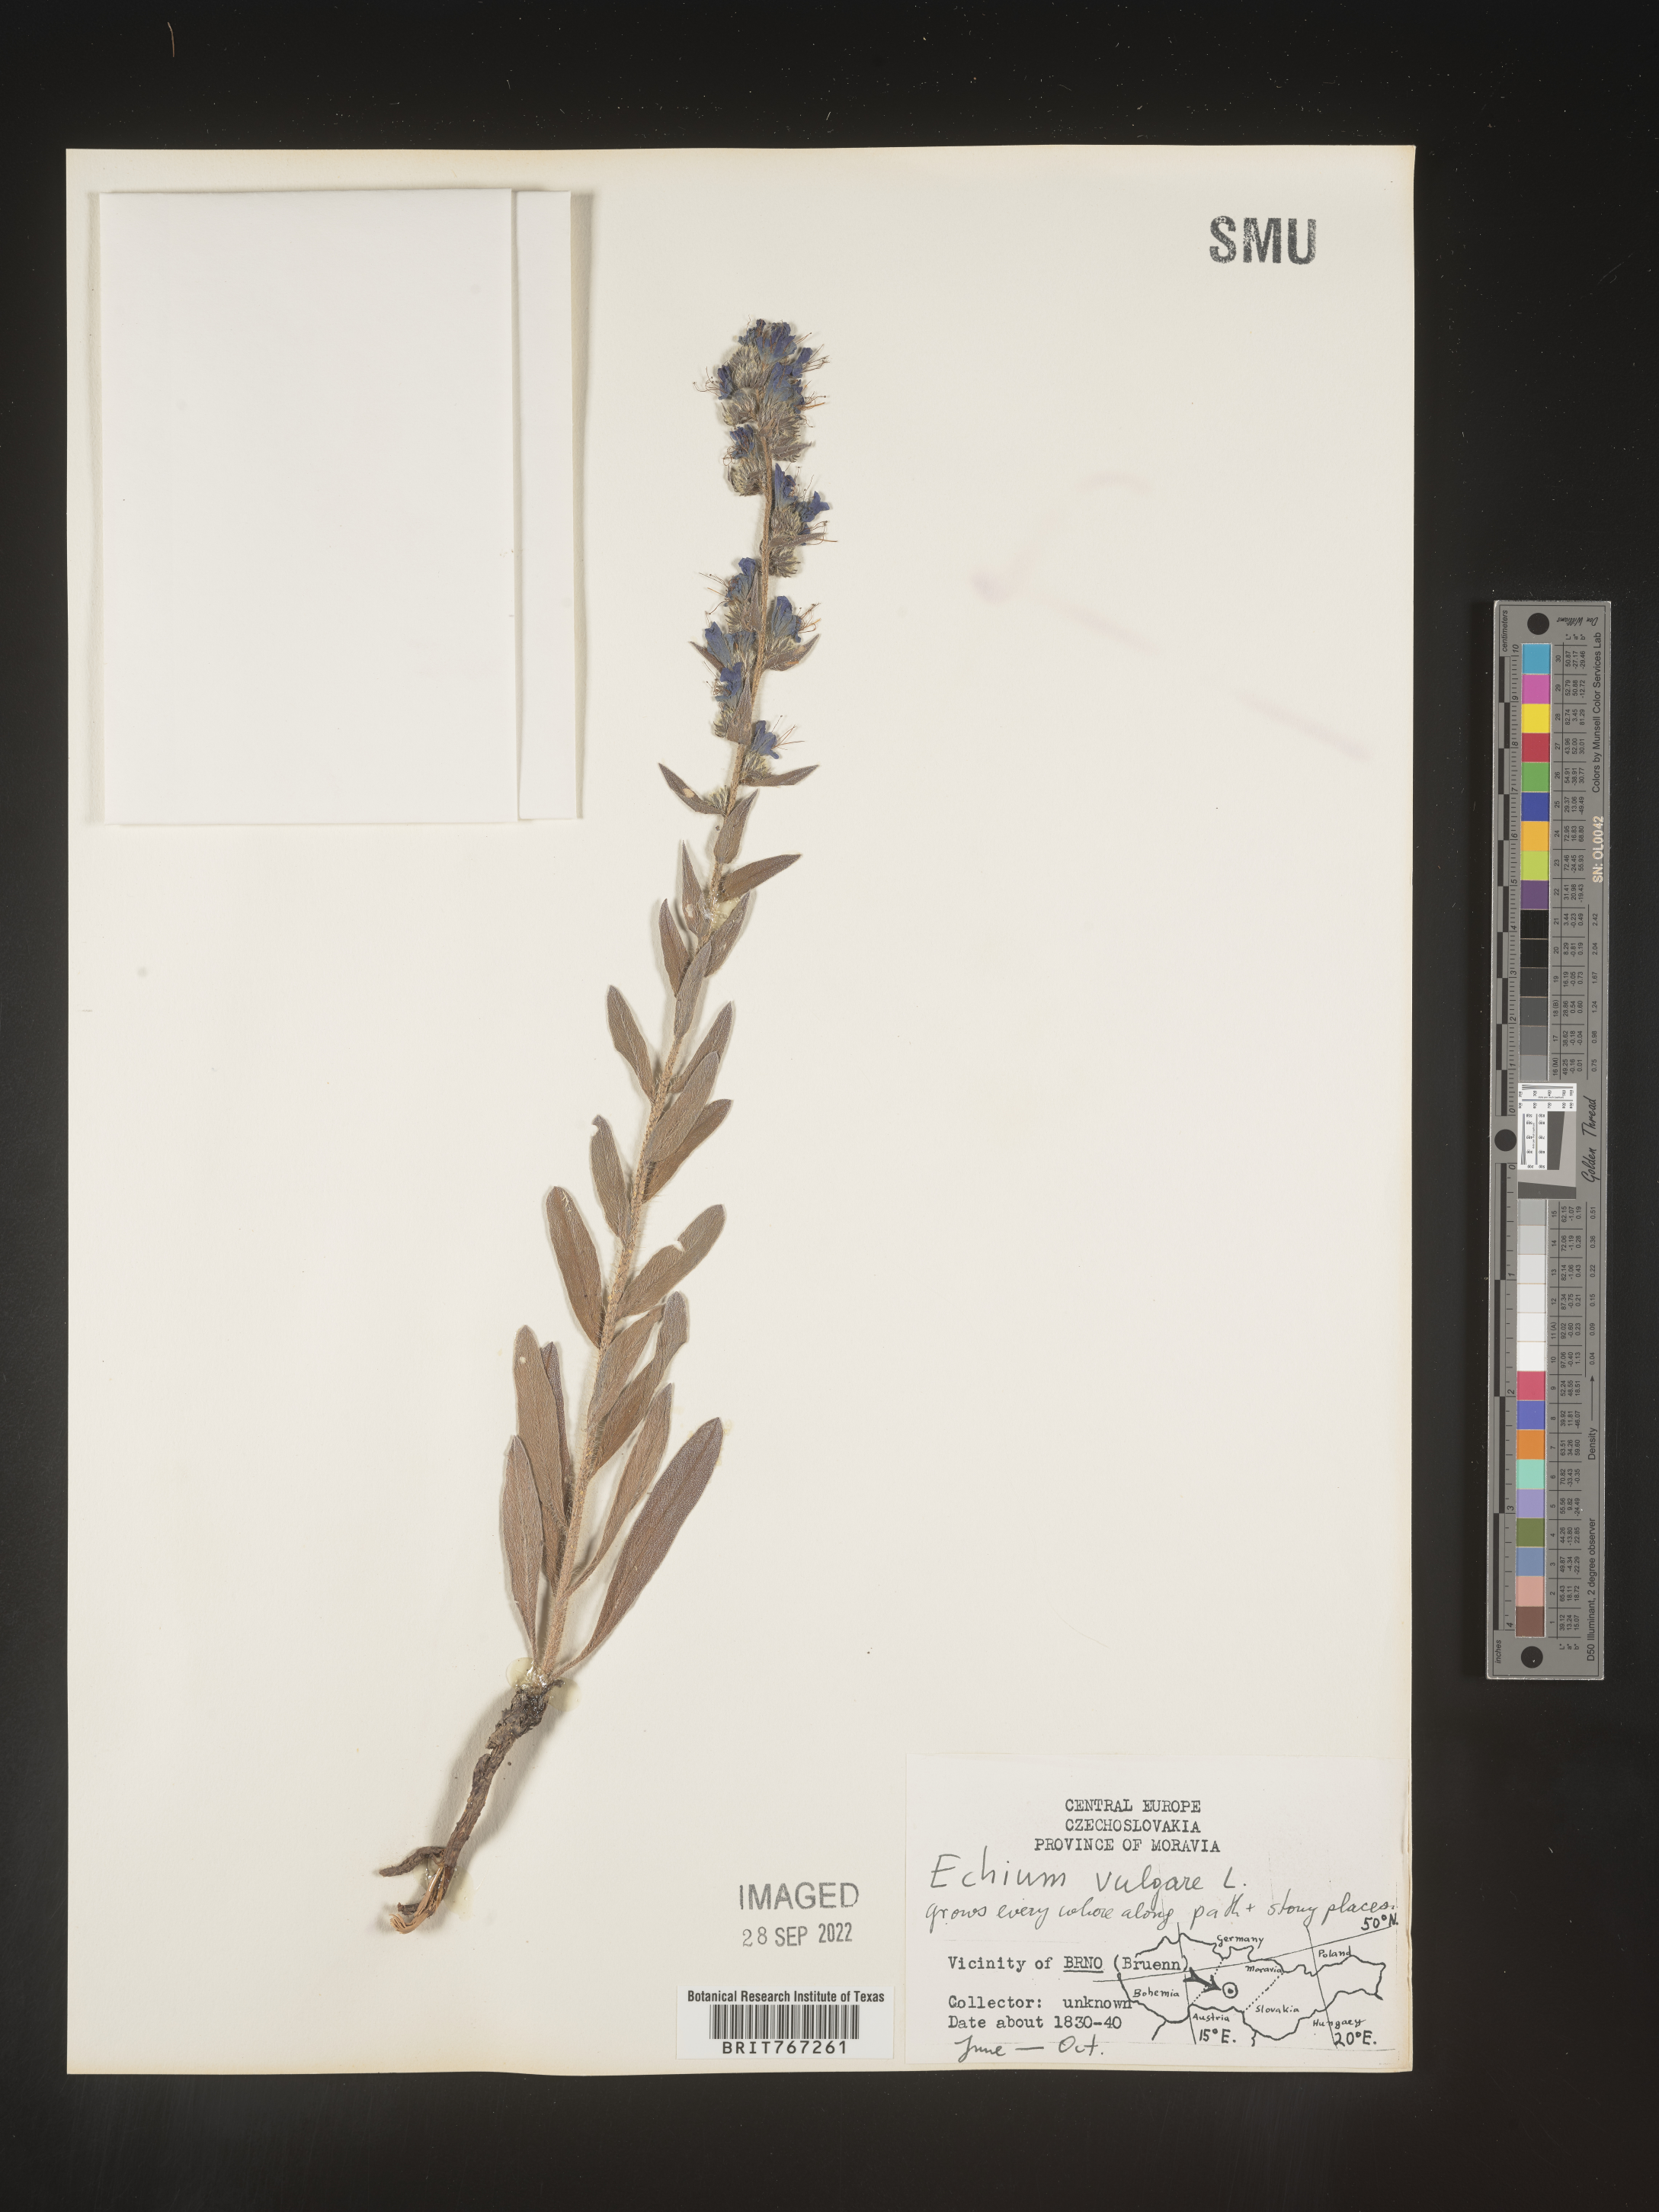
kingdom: Plantae
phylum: Tracheophyta
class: Magnoliopsida
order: Boraginales
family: Boraginaceae
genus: Echium
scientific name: Echium
